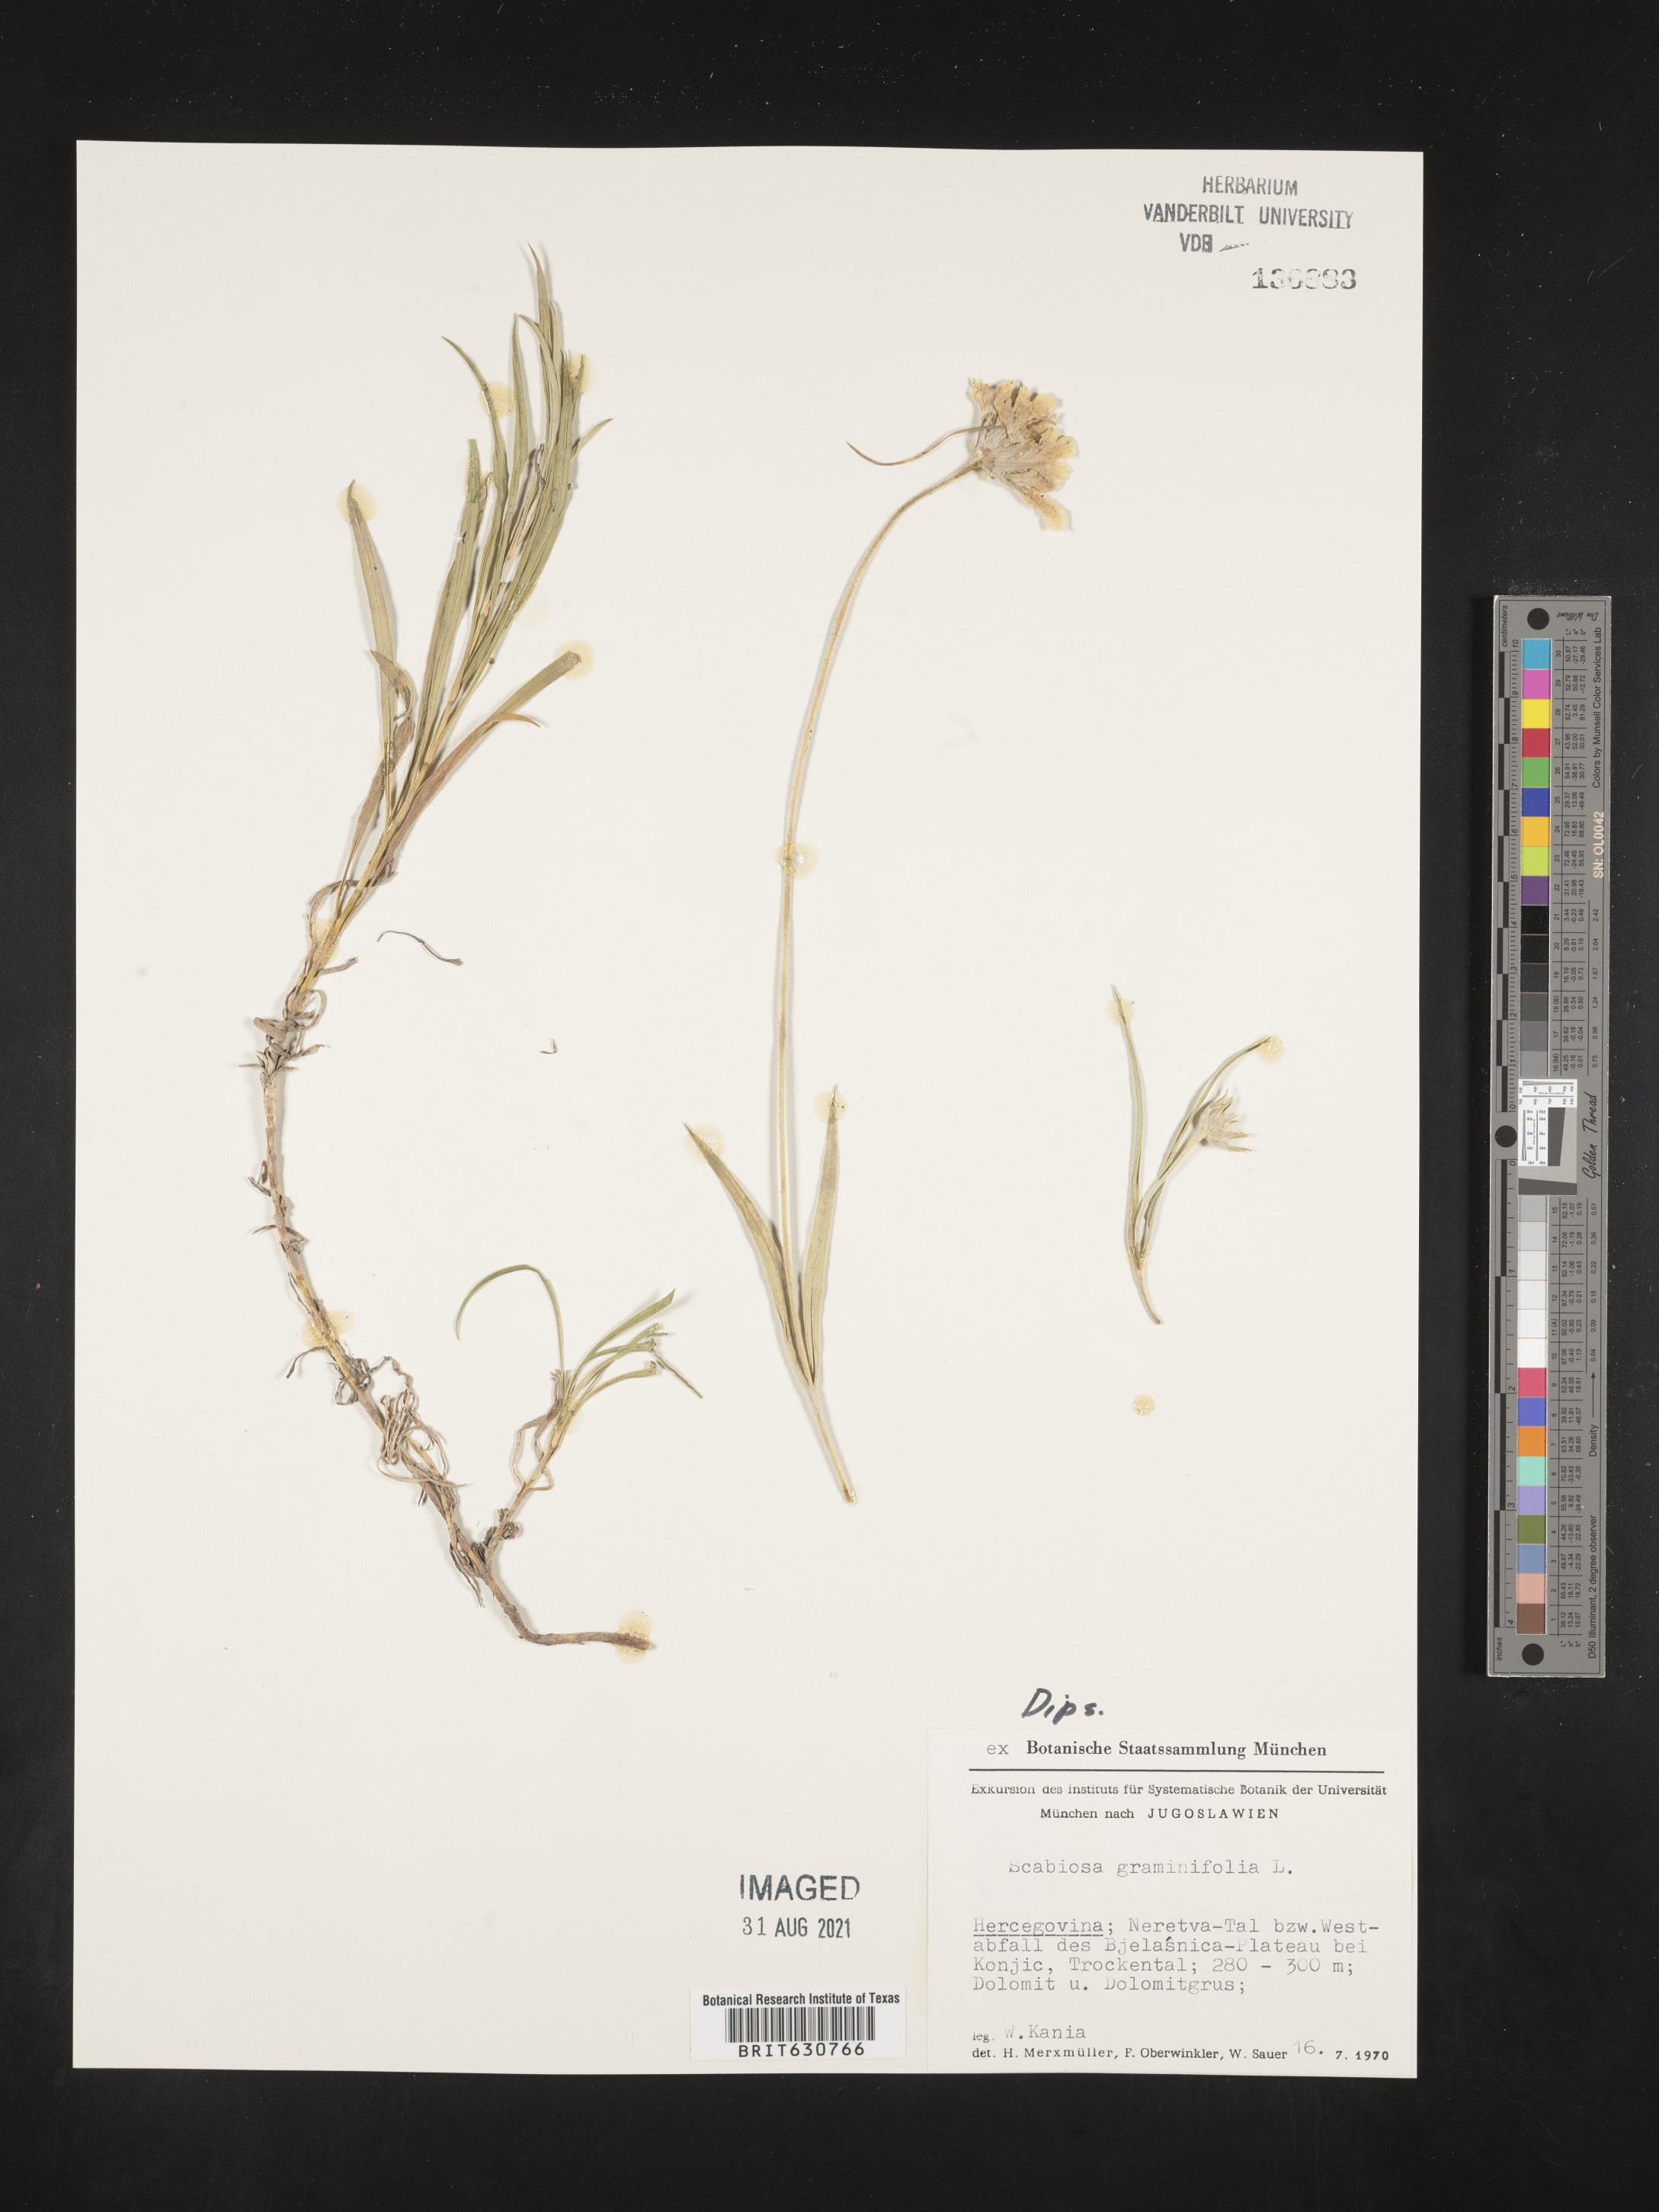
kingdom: Plantae
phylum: Tracheophyta
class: Magnoliopsida
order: Dipsacales
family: Caprifoliaceae
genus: Lomelosia
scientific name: Lomelosia graminifolia
